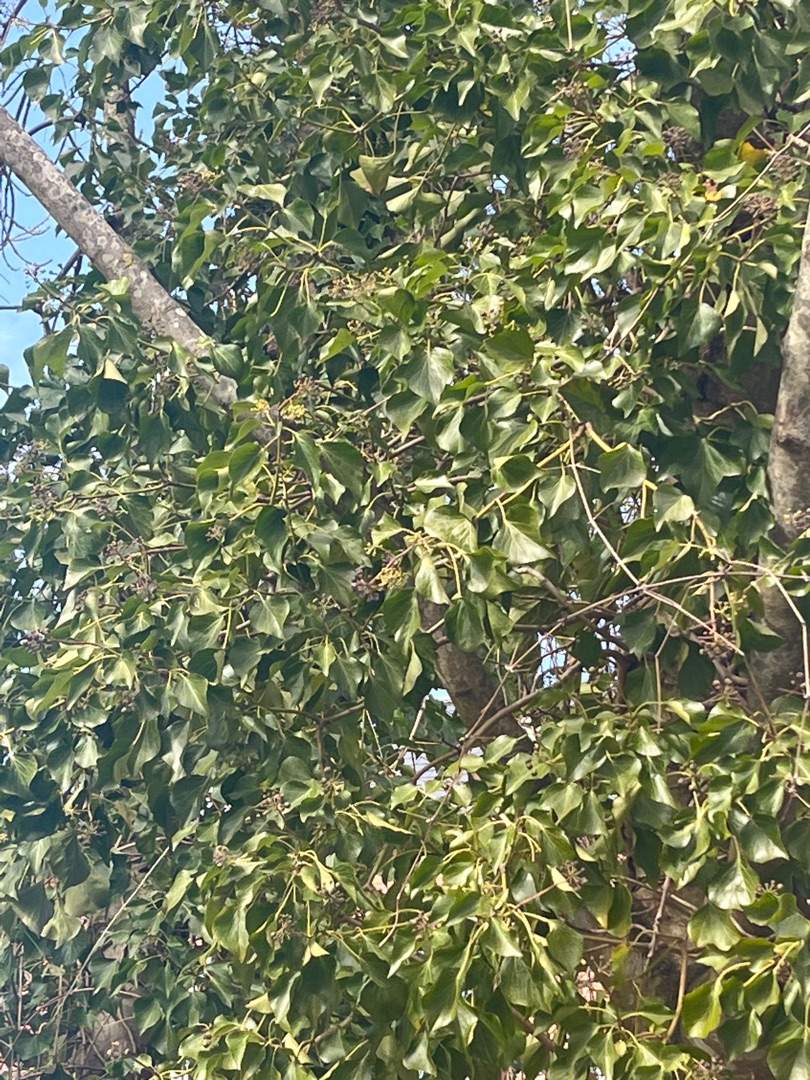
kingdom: Plantae
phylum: Tracheophyta
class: Magnoliopsida
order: Apiales
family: Araliaceae
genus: Hedera
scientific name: Hedera helix
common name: Vedbend
